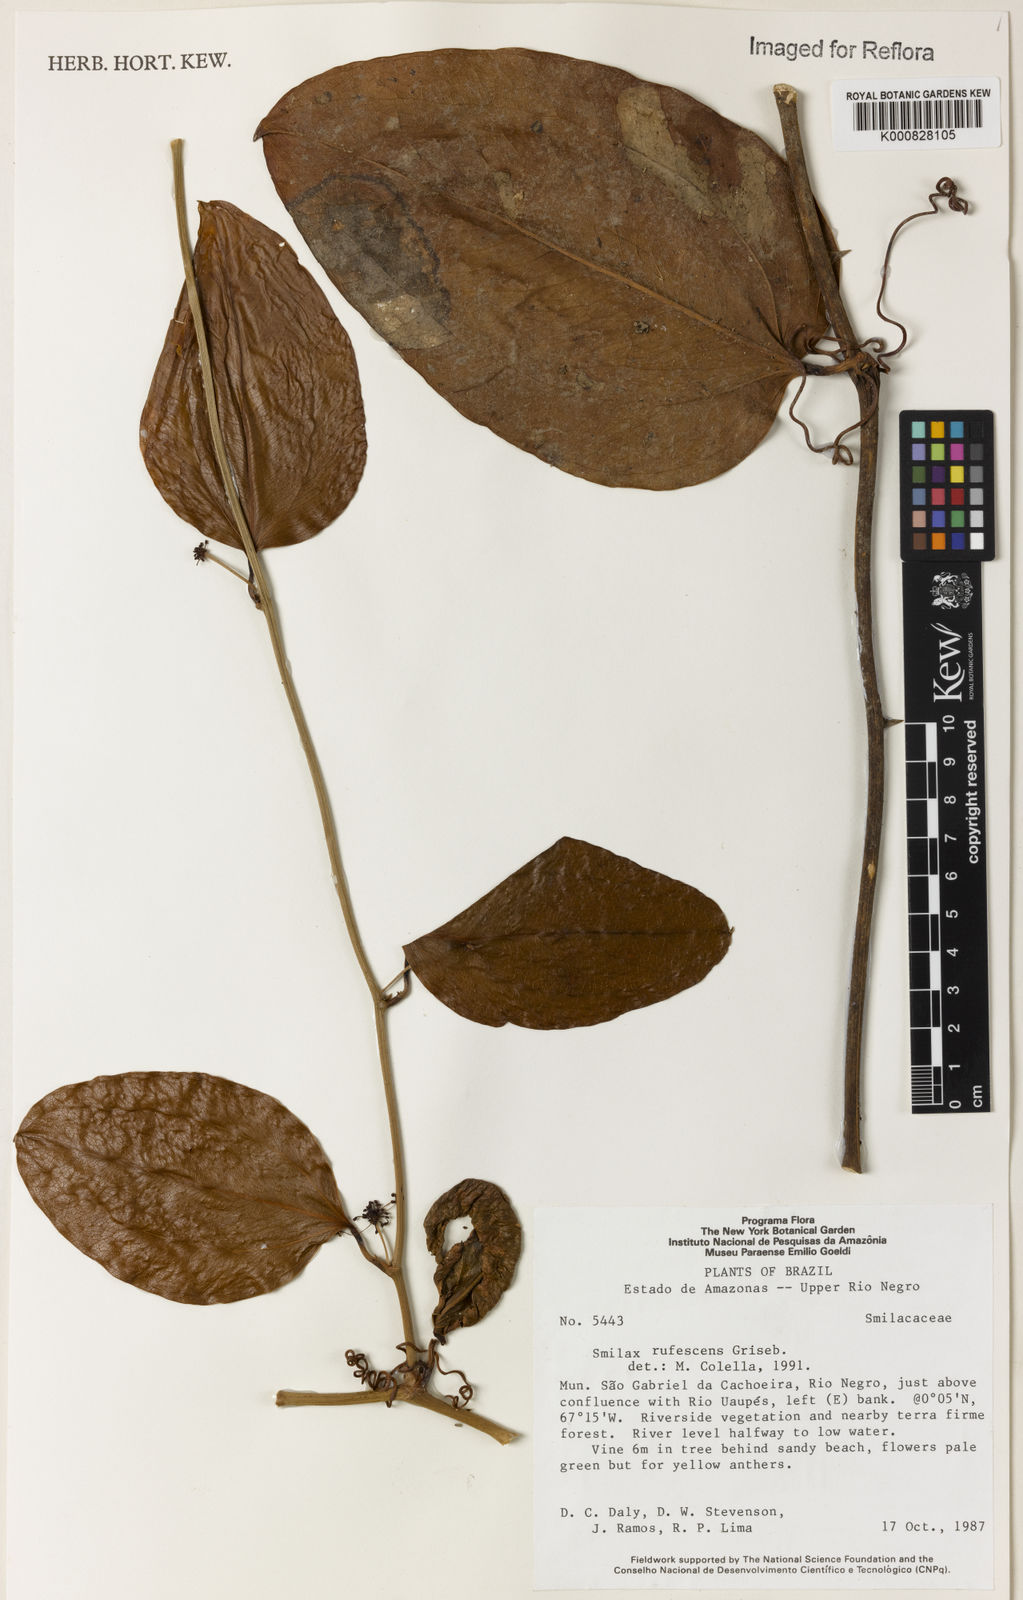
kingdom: Plantae
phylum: Tracheophyta
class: Liliopsida
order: Liliales
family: Smilacaceae
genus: Smilax
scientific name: Smilax rufescens
